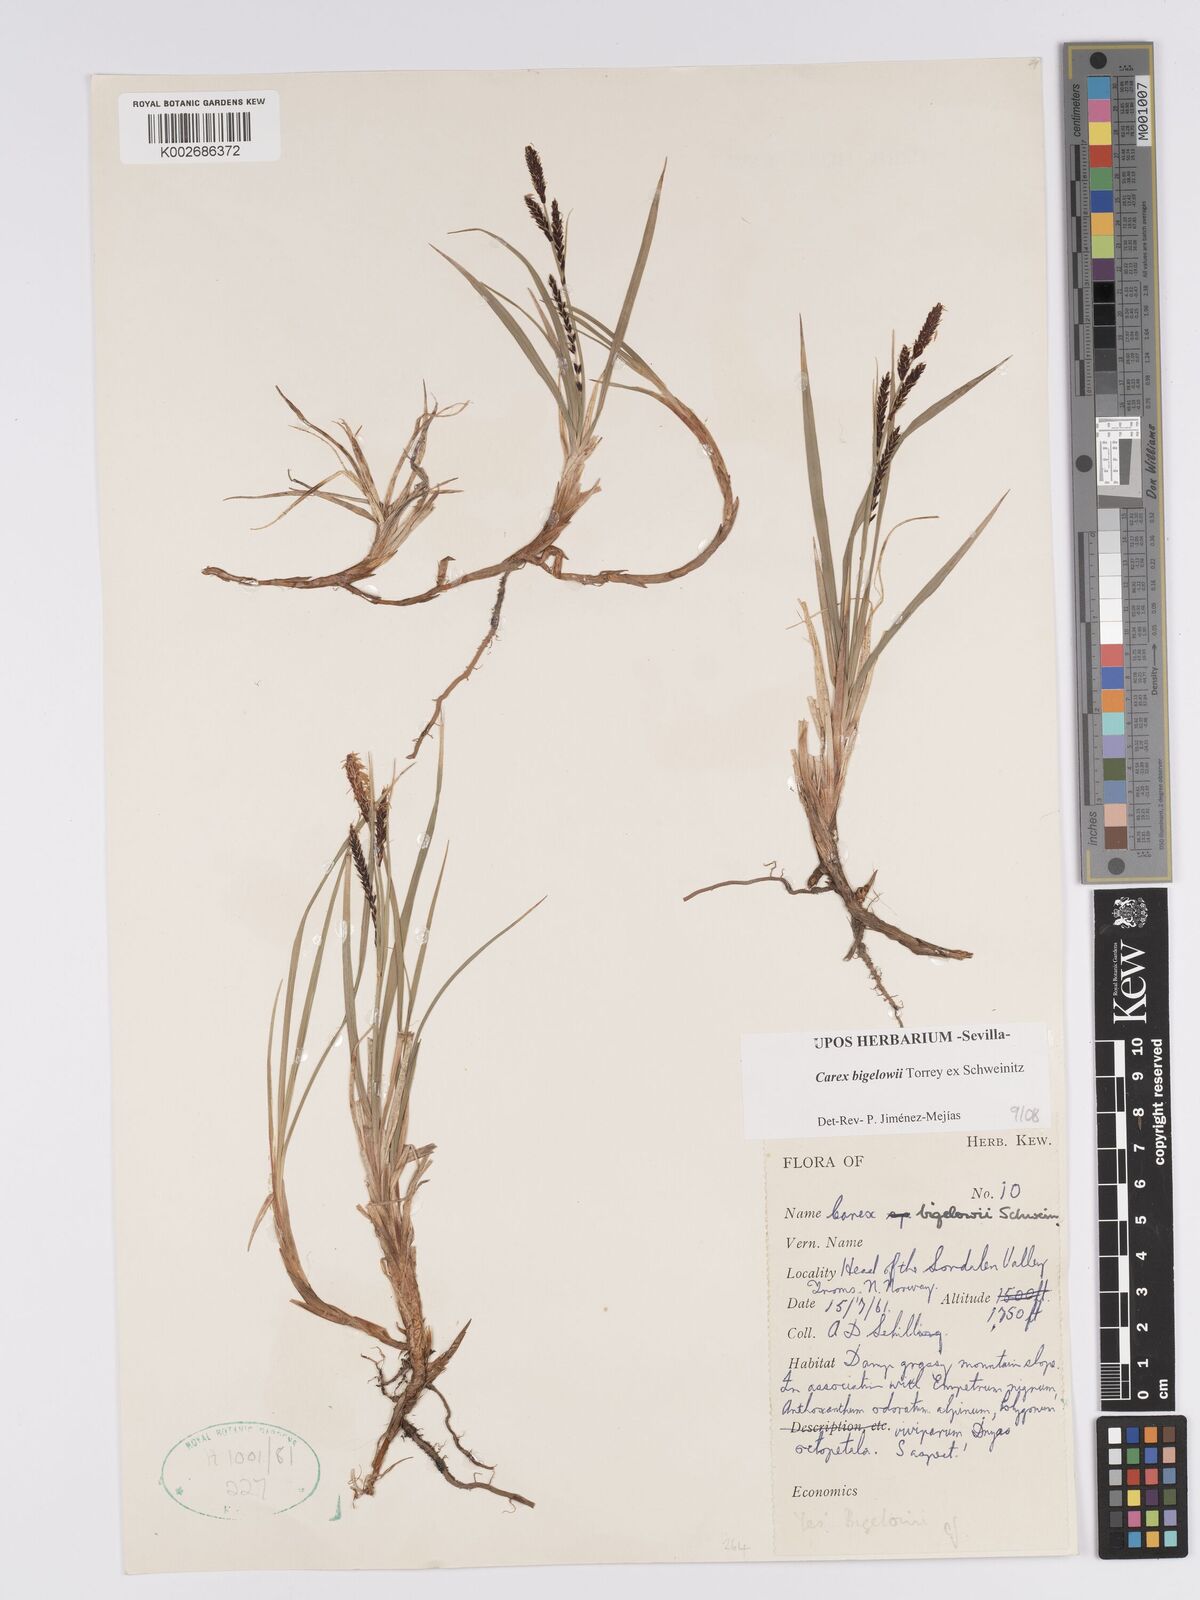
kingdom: Plantae
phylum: Tracheophyta
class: Liliopsida
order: Poales
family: Cyperaceae
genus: Carex
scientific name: Carex bigelowii
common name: Stiff sedge
